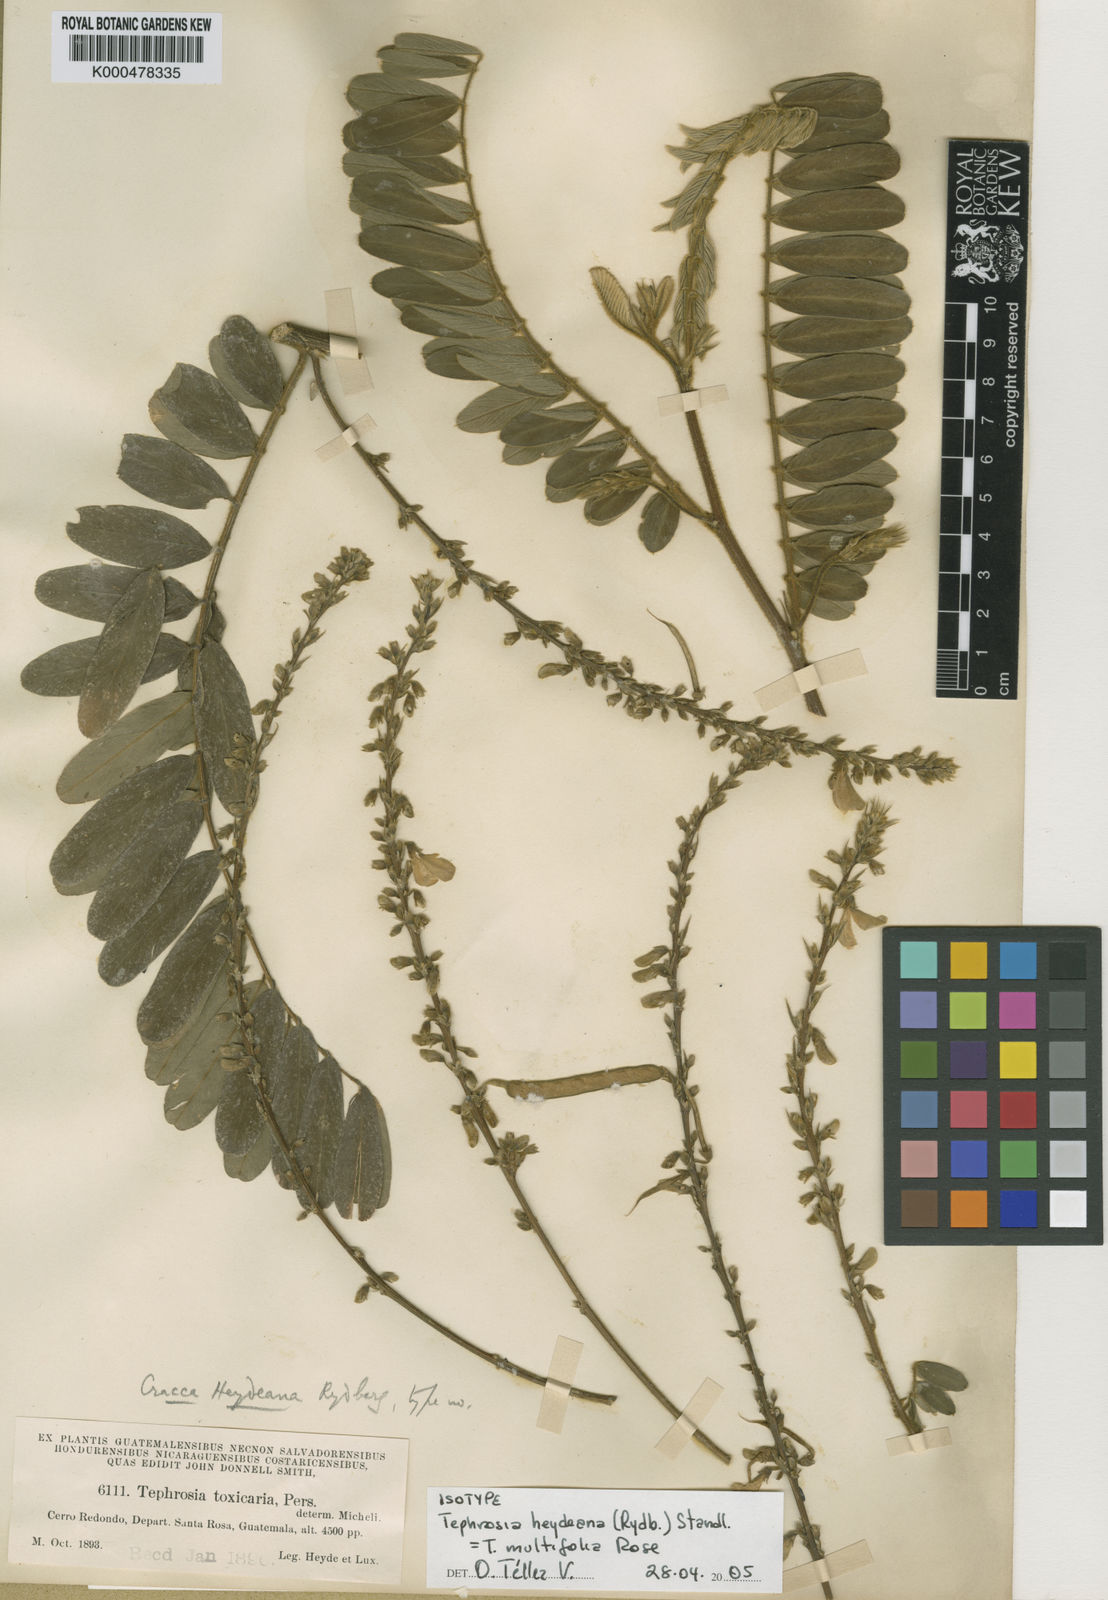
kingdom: Plantae
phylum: Tracheophyta
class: Magnoliopsida
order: Fabales
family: Fabaceae
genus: Tephrosia
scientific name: Tephrosia multifolia
